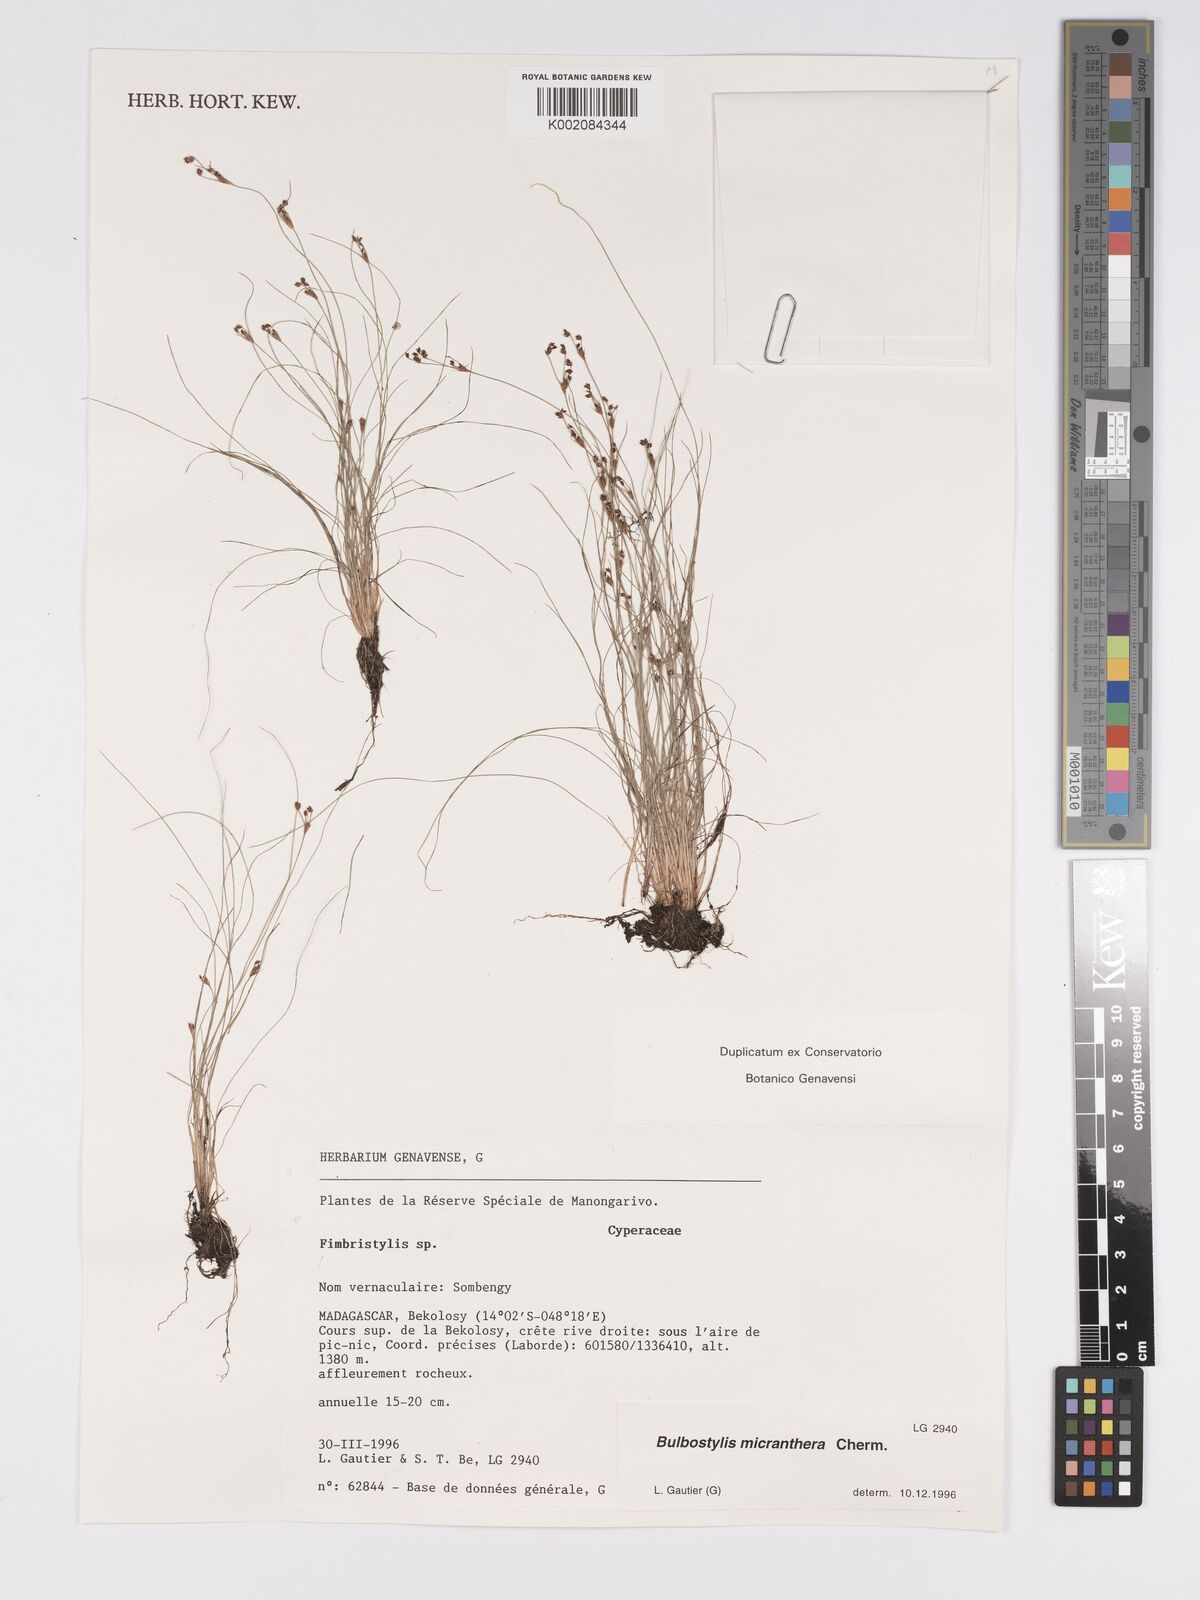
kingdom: Plantae
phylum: Tracheophyta
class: Liliopsida
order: Poales
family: Cyperaceae
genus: Bulbostylis
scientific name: Bulbostylis micranthera
